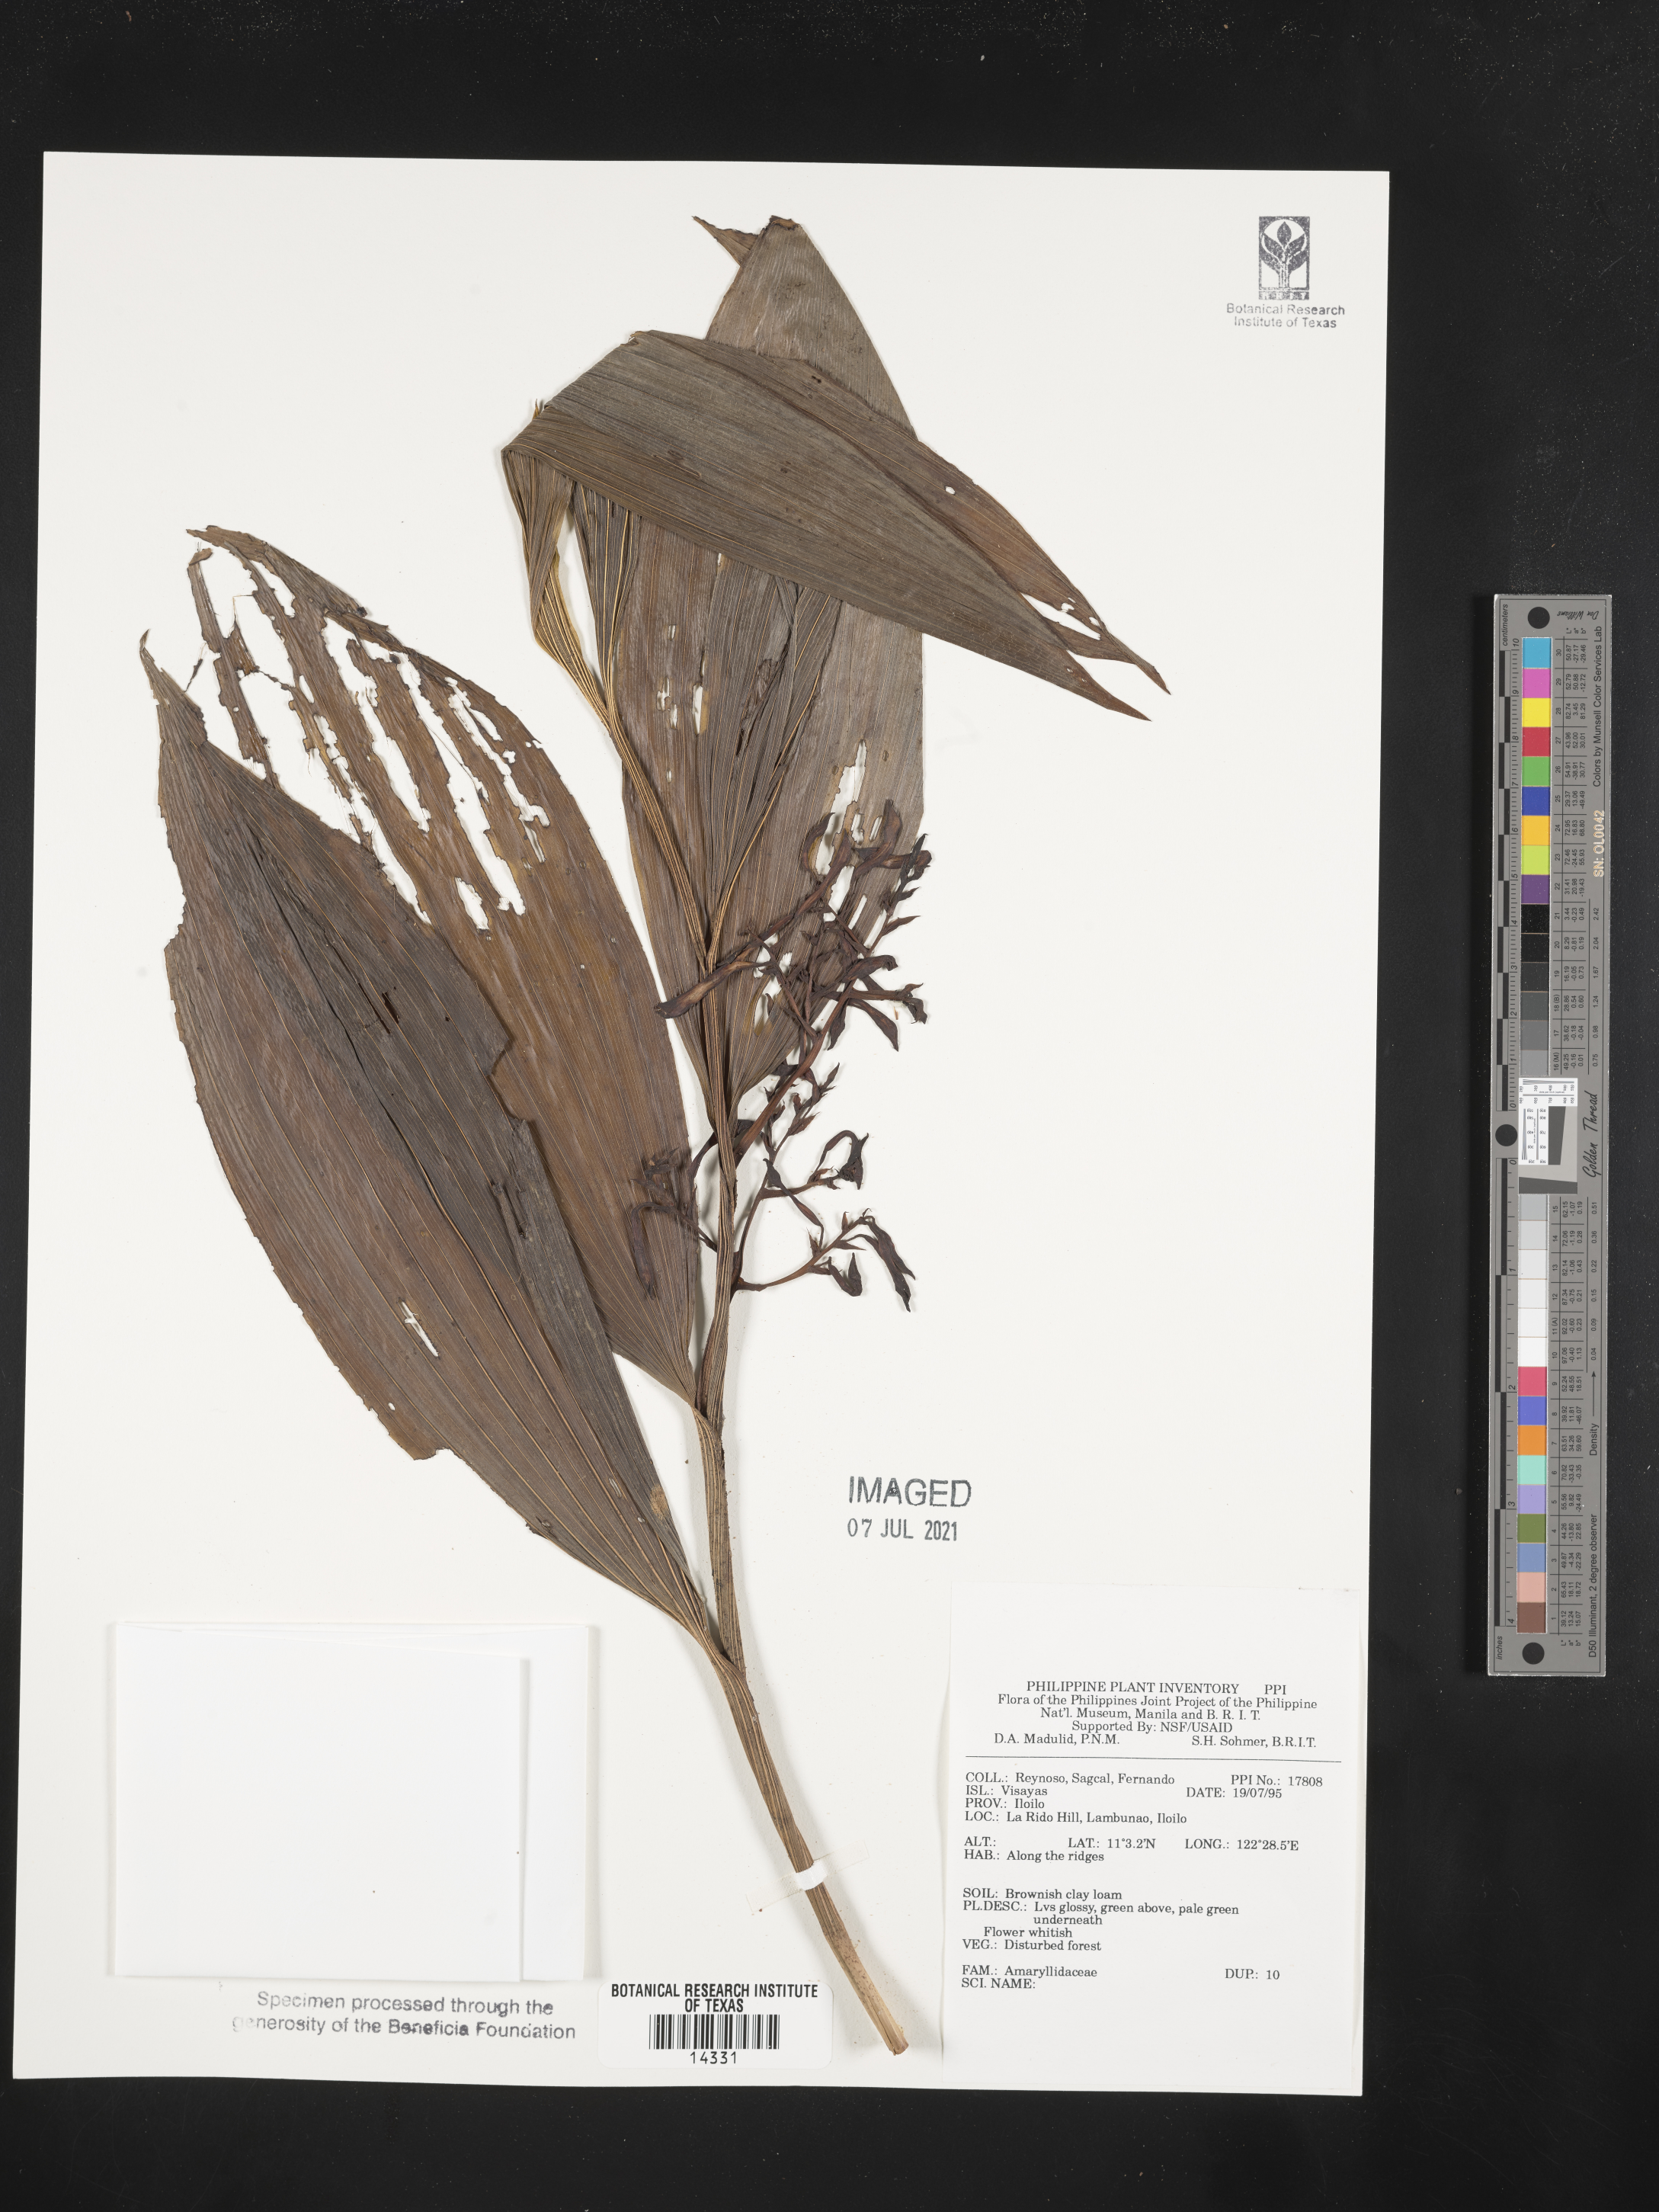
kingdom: Plantae
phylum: Tracheophyta
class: Liliopsida
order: Asparagales
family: Amaryllidaceae
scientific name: Amaryllidaceae
